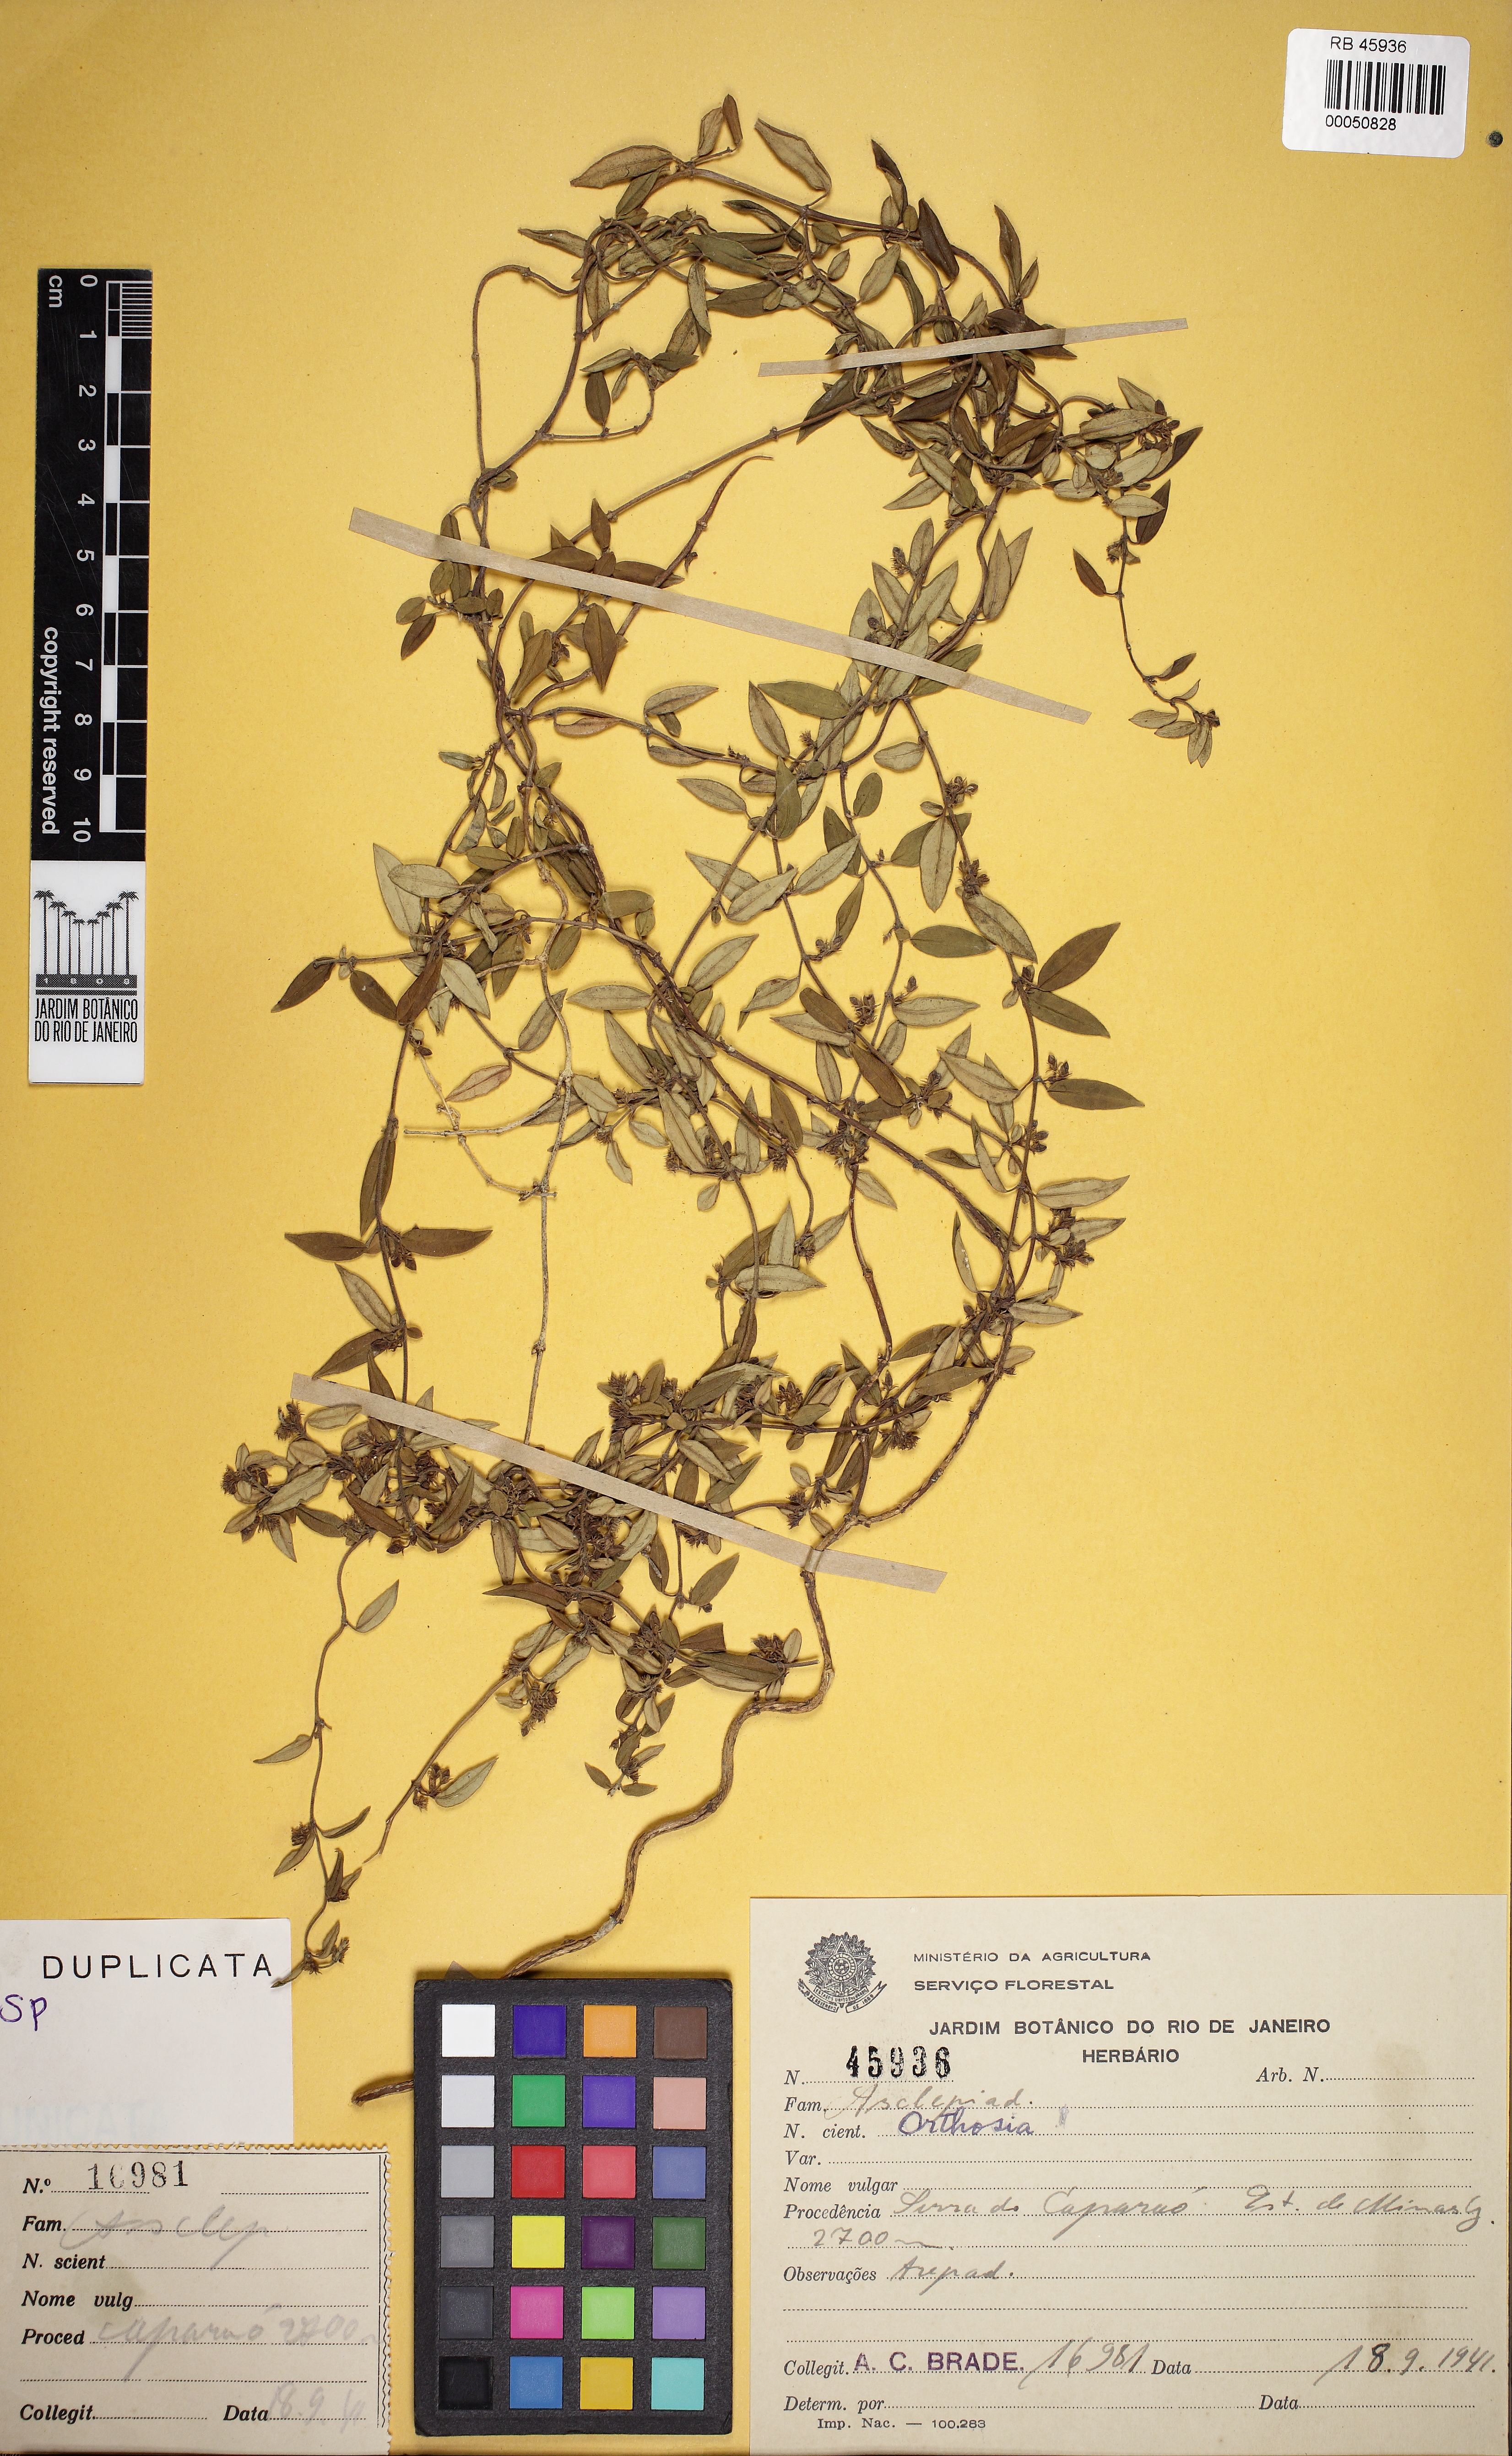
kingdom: Plantae
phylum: Tracheophyta
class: Magnoliopsida
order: Gentianales
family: Apocynaceae
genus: Orthosia
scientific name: Orthosia
